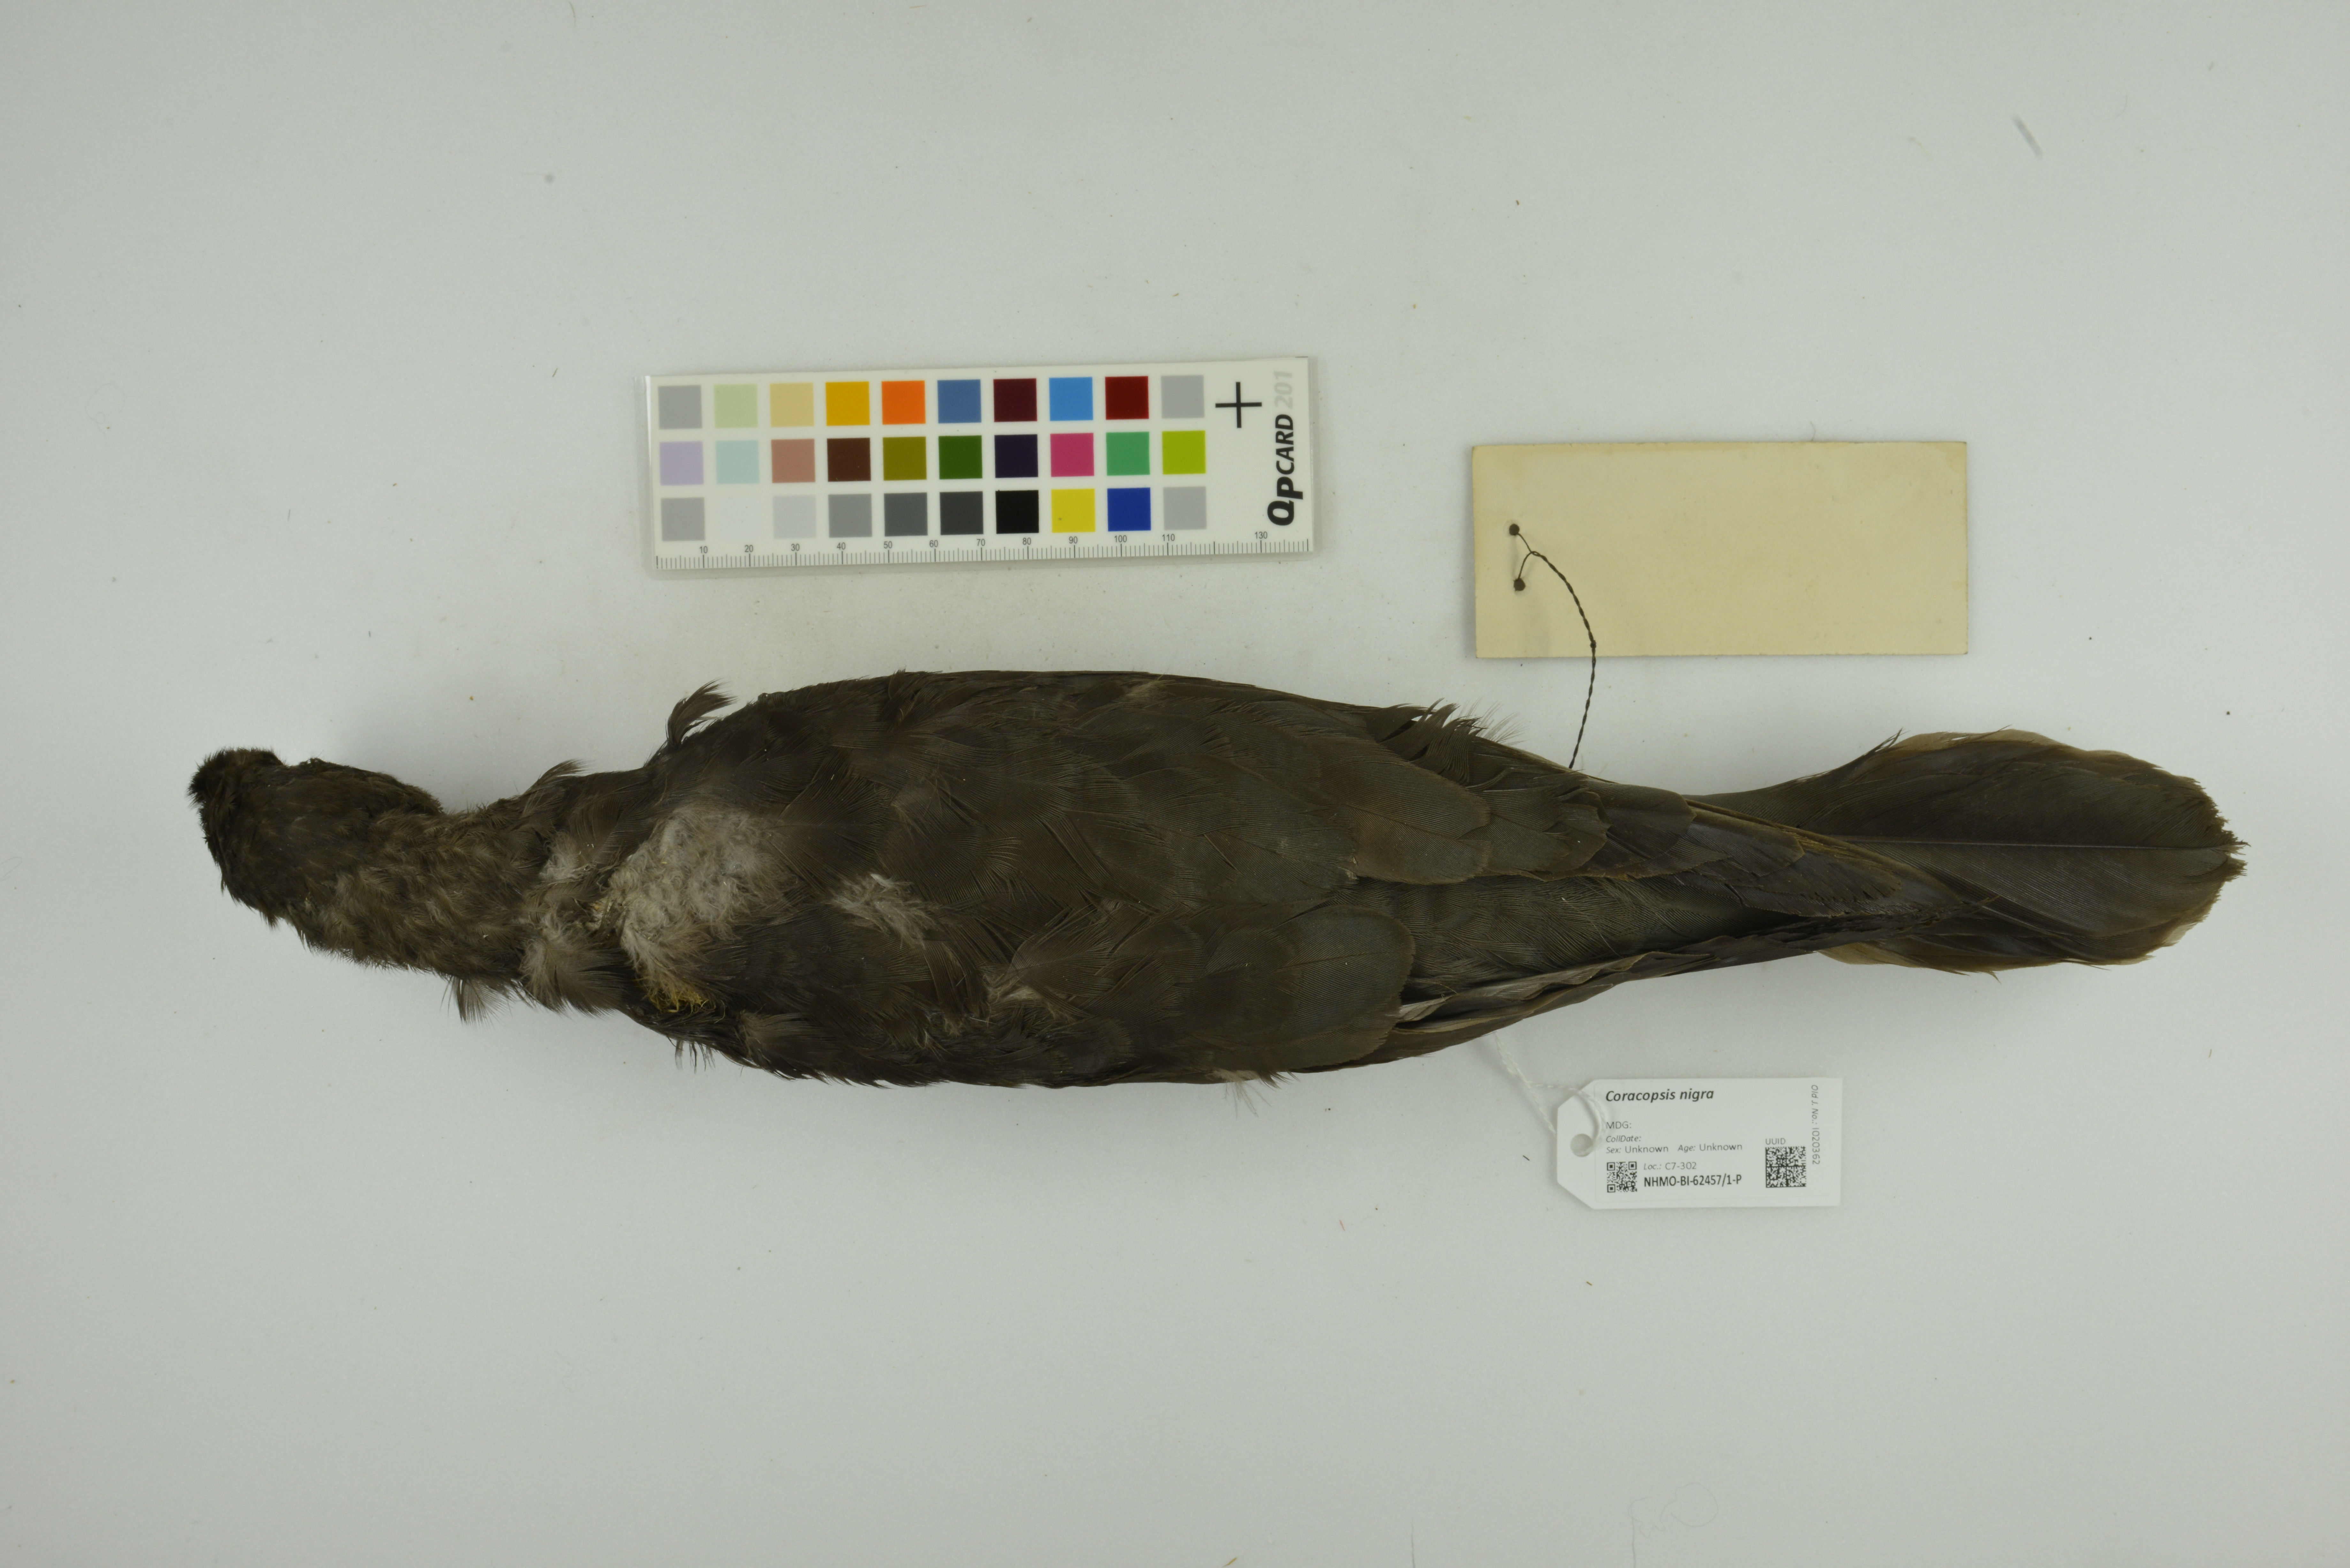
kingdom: Animalia
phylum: Chordata
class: Aves
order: Psittaciformes
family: Psittacidae
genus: Coracopsis
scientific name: Coracopsis nigra
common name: Lesser vasa parrot
